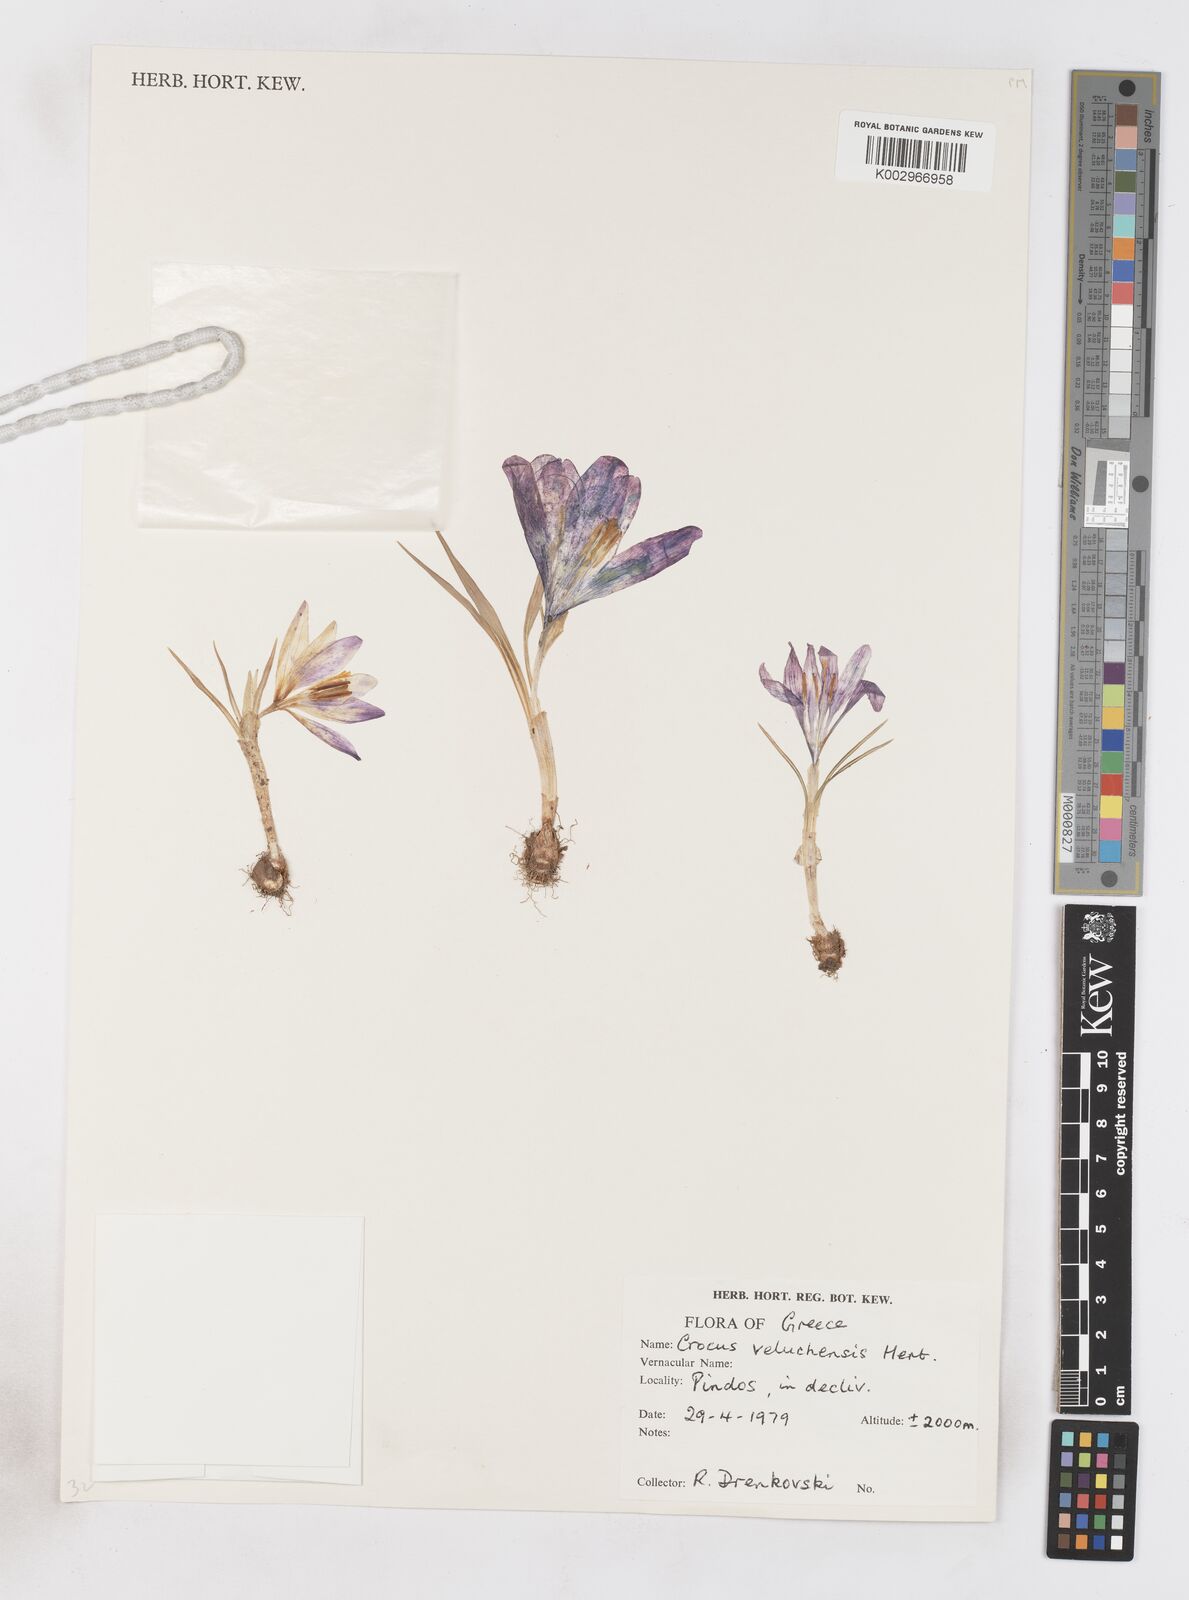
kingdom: Plantae
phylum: Tracheophyta
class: Liliopsida
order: Asparagales
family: Iridaceae
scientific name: Iridaceae
